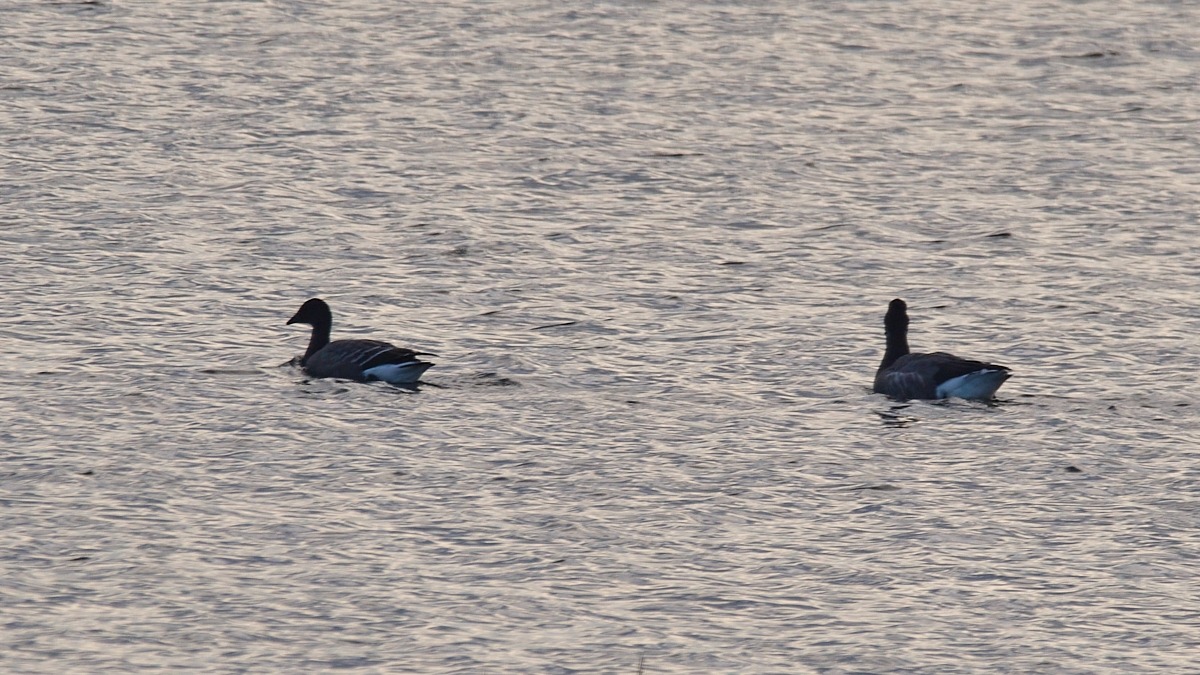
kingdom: Animalia
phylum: Chordata
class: Aves
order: Anseriformes
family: Anatidae
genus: Branta
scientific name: Branta bernicla
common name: Knortegås
